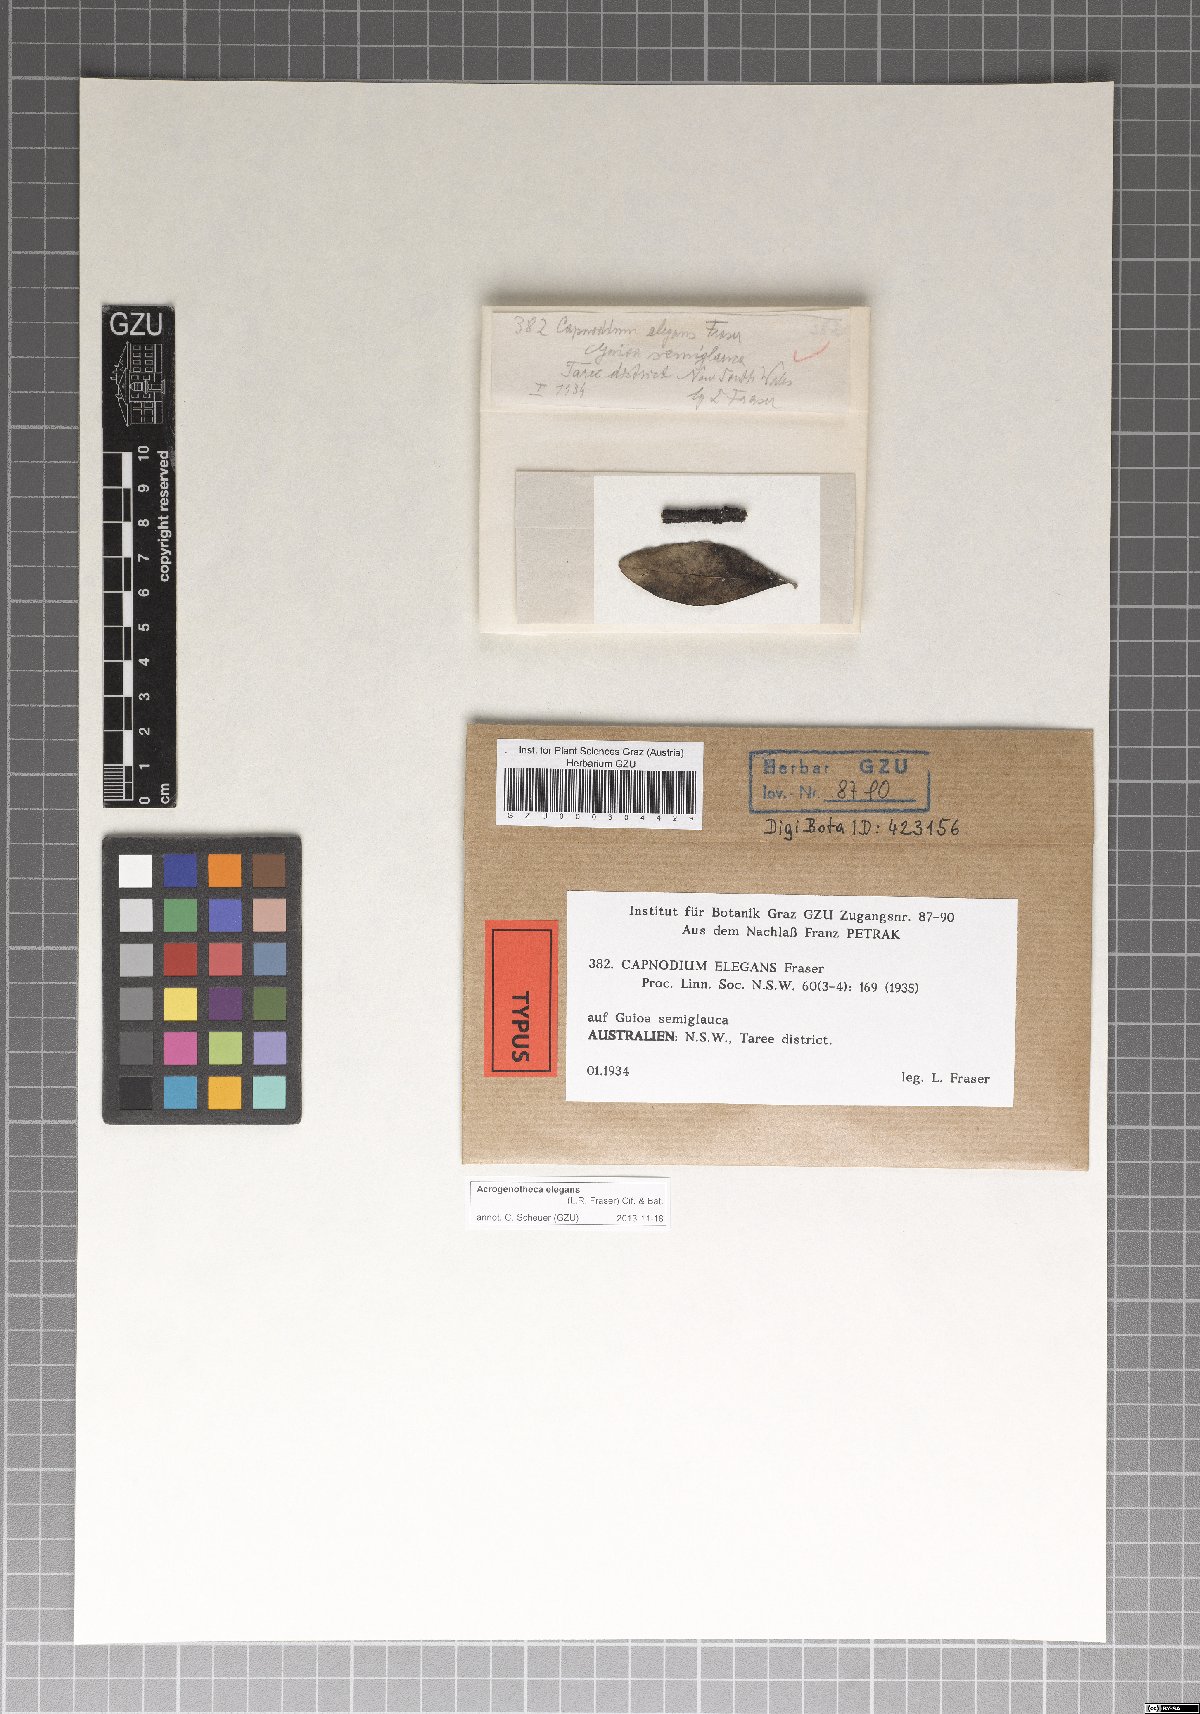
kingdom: Fungi
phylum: Ascomycota
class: Dothideomycetes
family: Trichopeltinaceae
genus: Acrogenotheca
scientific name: Acrogenotheca elegans
